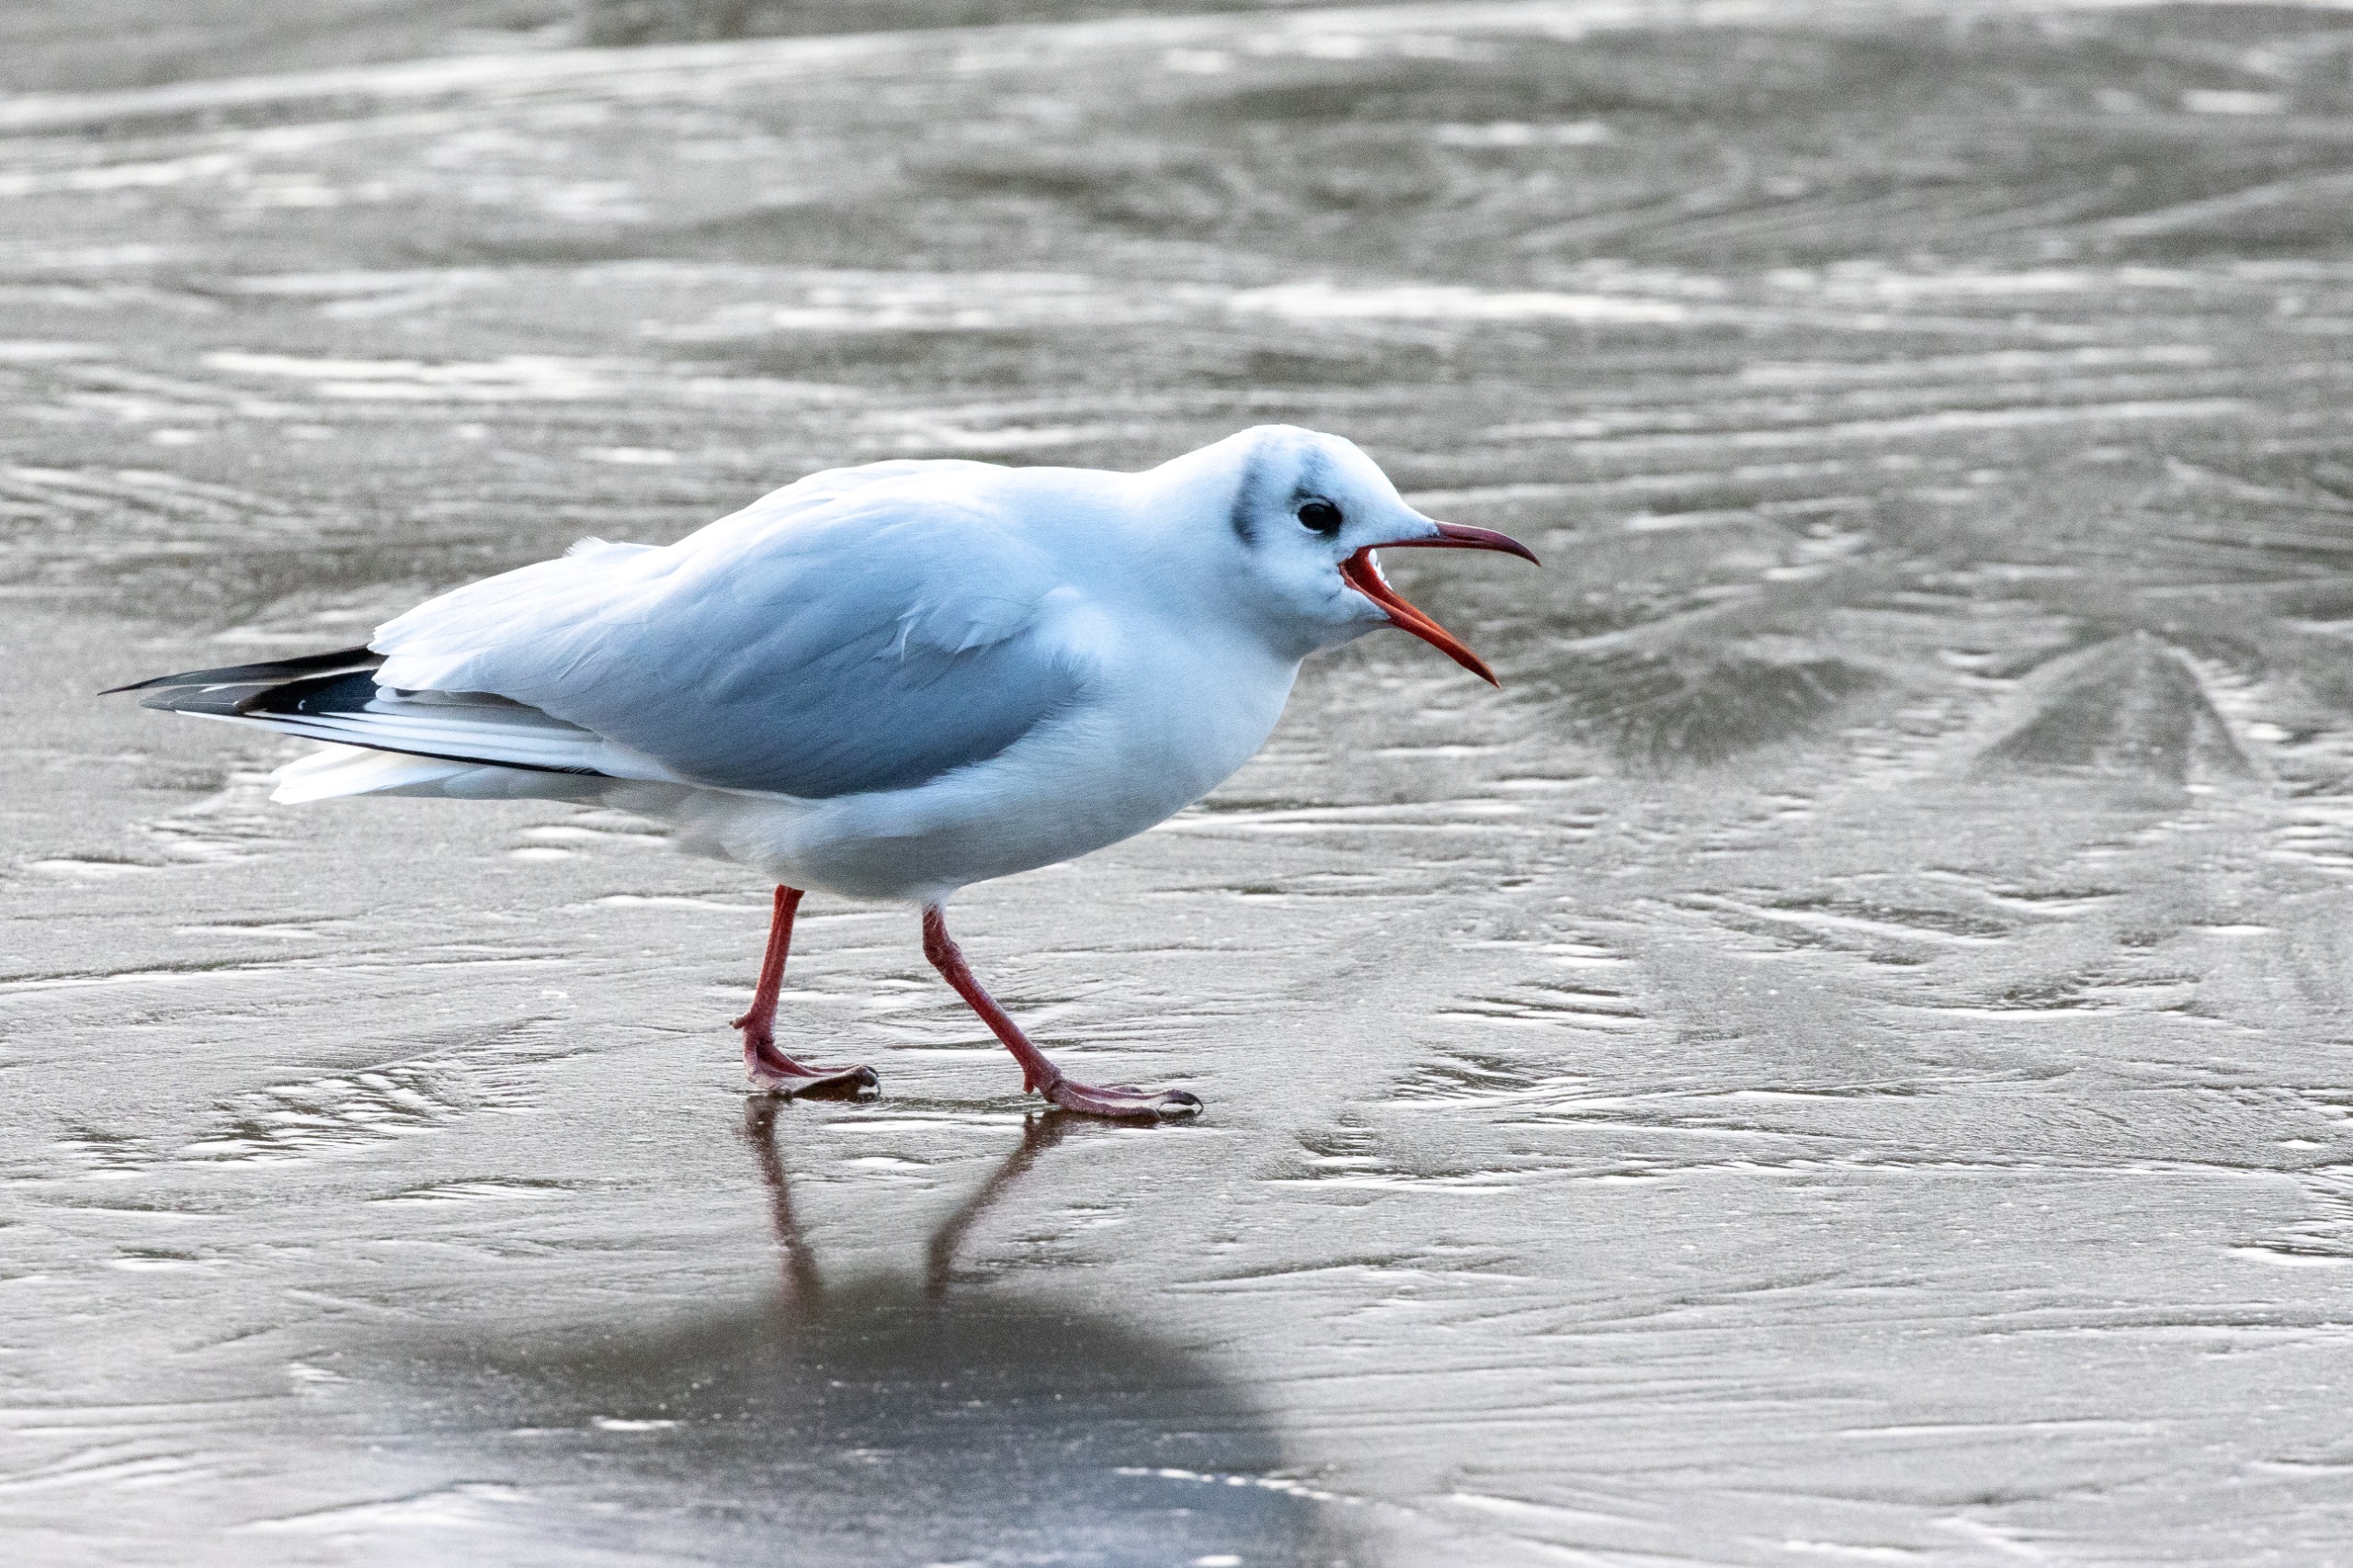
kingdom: Animalia
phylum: Chordata
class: Aves
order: Charadriiformes
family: Laridae
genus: Chroicocephalus
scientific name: Chroicocephalus ridibundus
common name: Hættemåge
